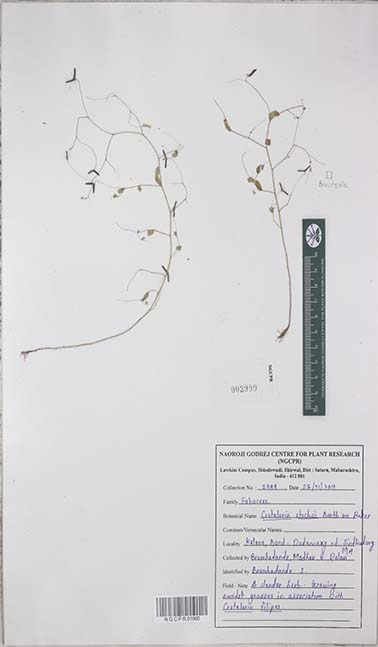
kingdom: Plantae
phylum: Tracheophyta
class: Magnoliopsida
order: Fabales
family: Fabaceae
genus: Crotalaria
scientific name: Crotalaria stocksii
